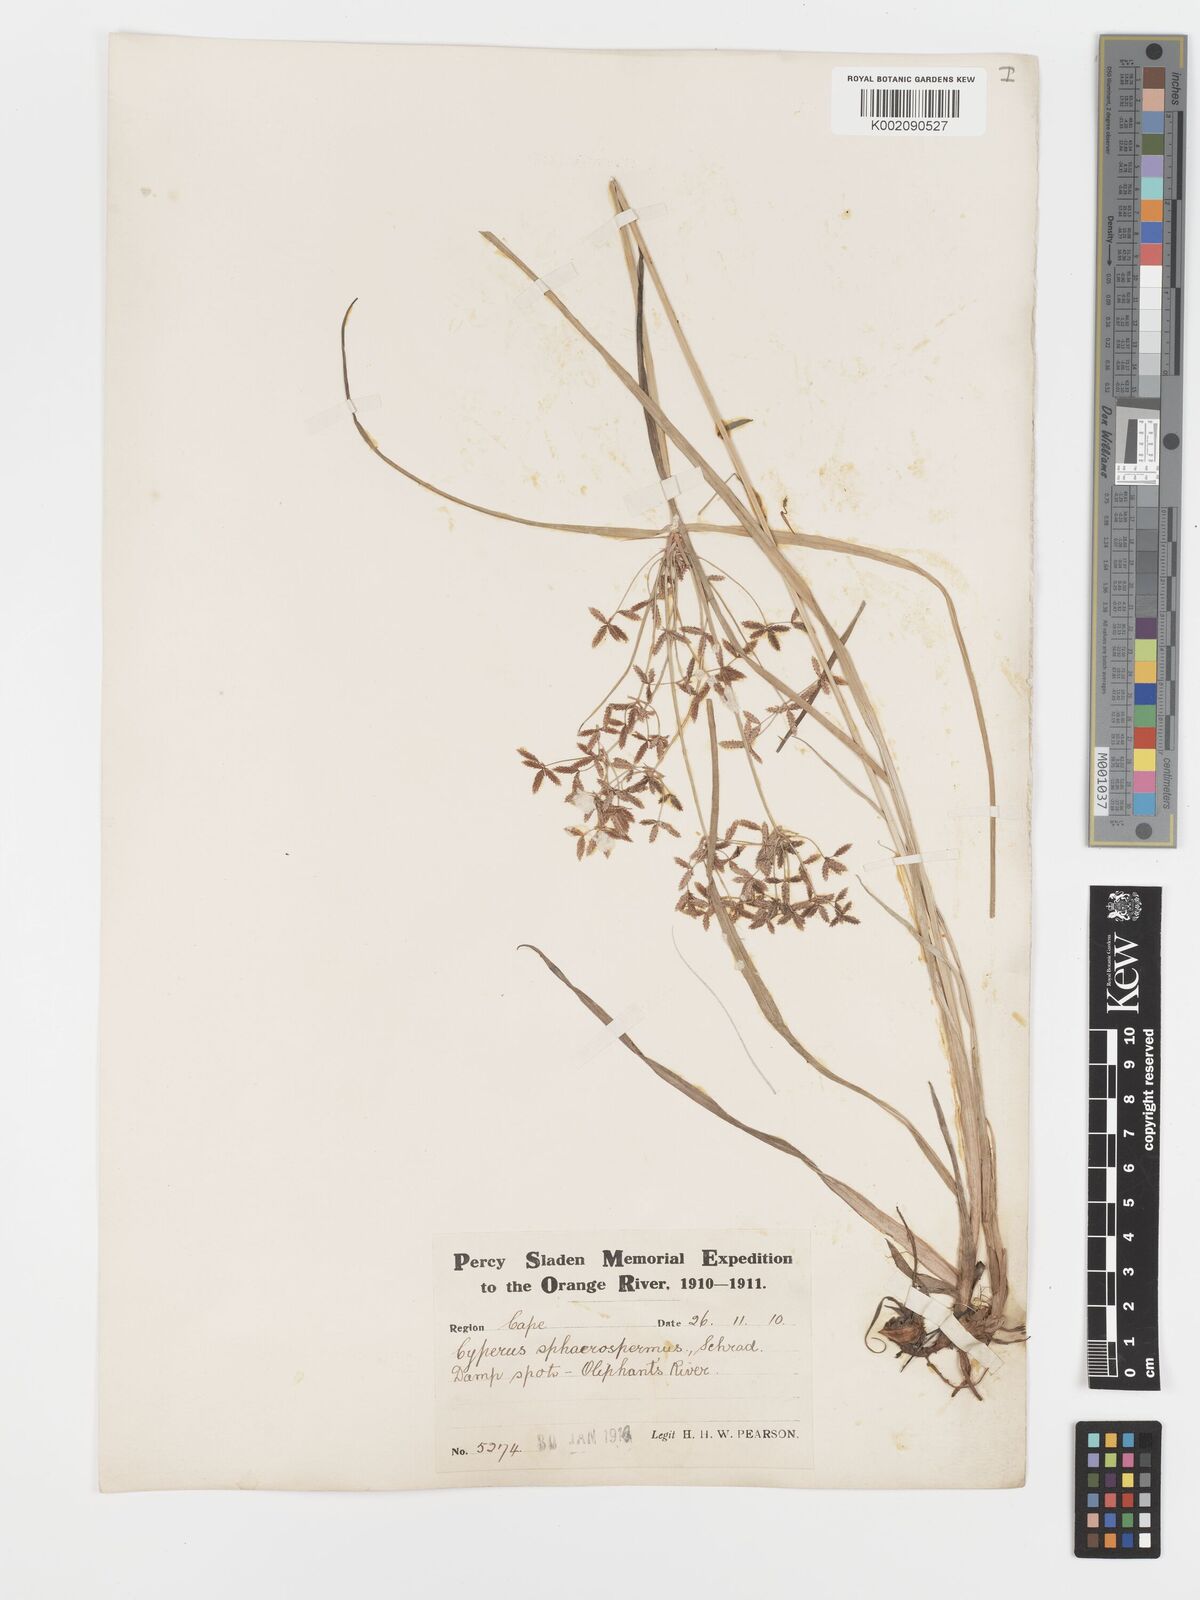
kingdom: Plantae
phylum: Tracheophyta
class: Liliopsida
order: Poales
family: Cyperaceae
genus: Cyperus
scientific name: Cyperus sphaerospermus
